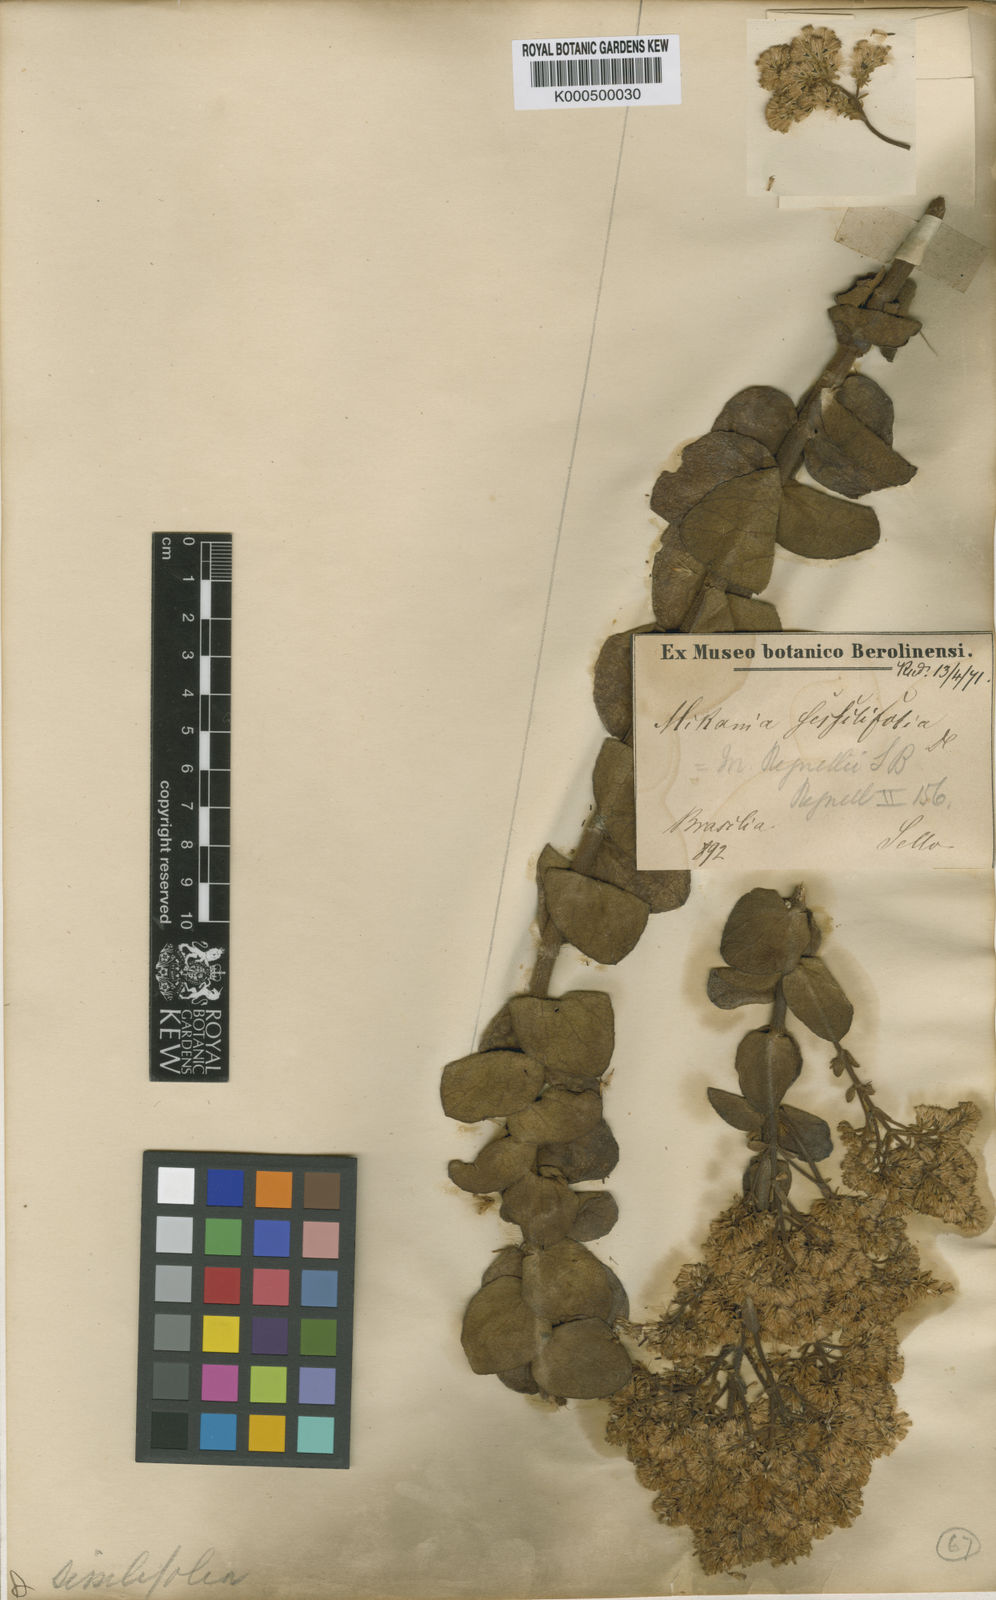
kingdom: Plantae
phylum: Tracheophyta
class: Magnoliopsida
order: Asterales
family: Asteraceae
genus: Mikania
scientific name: Mikania sessilifolia
